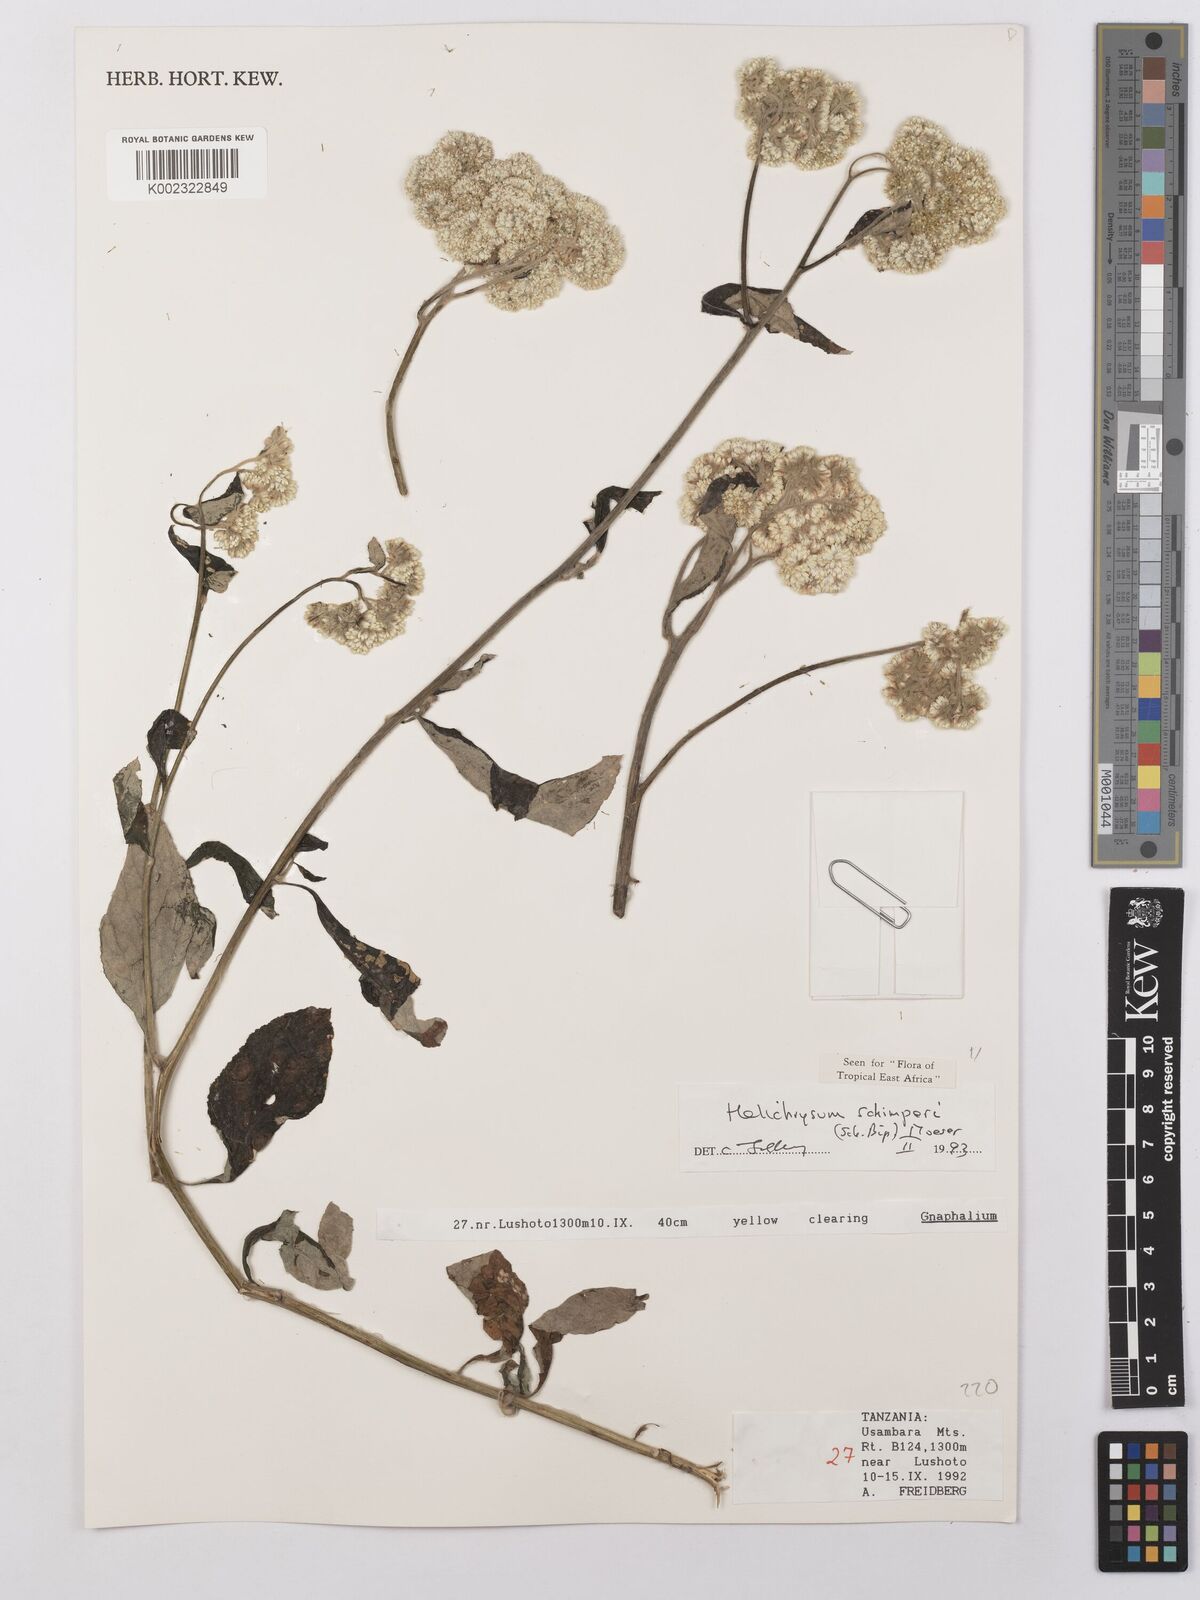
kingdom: Plantae
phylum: Tracheophyta
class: Magnoliopsida
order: Asterales
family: Asteraceae
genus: Helichrysum
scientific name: Helichrysum schimperi
